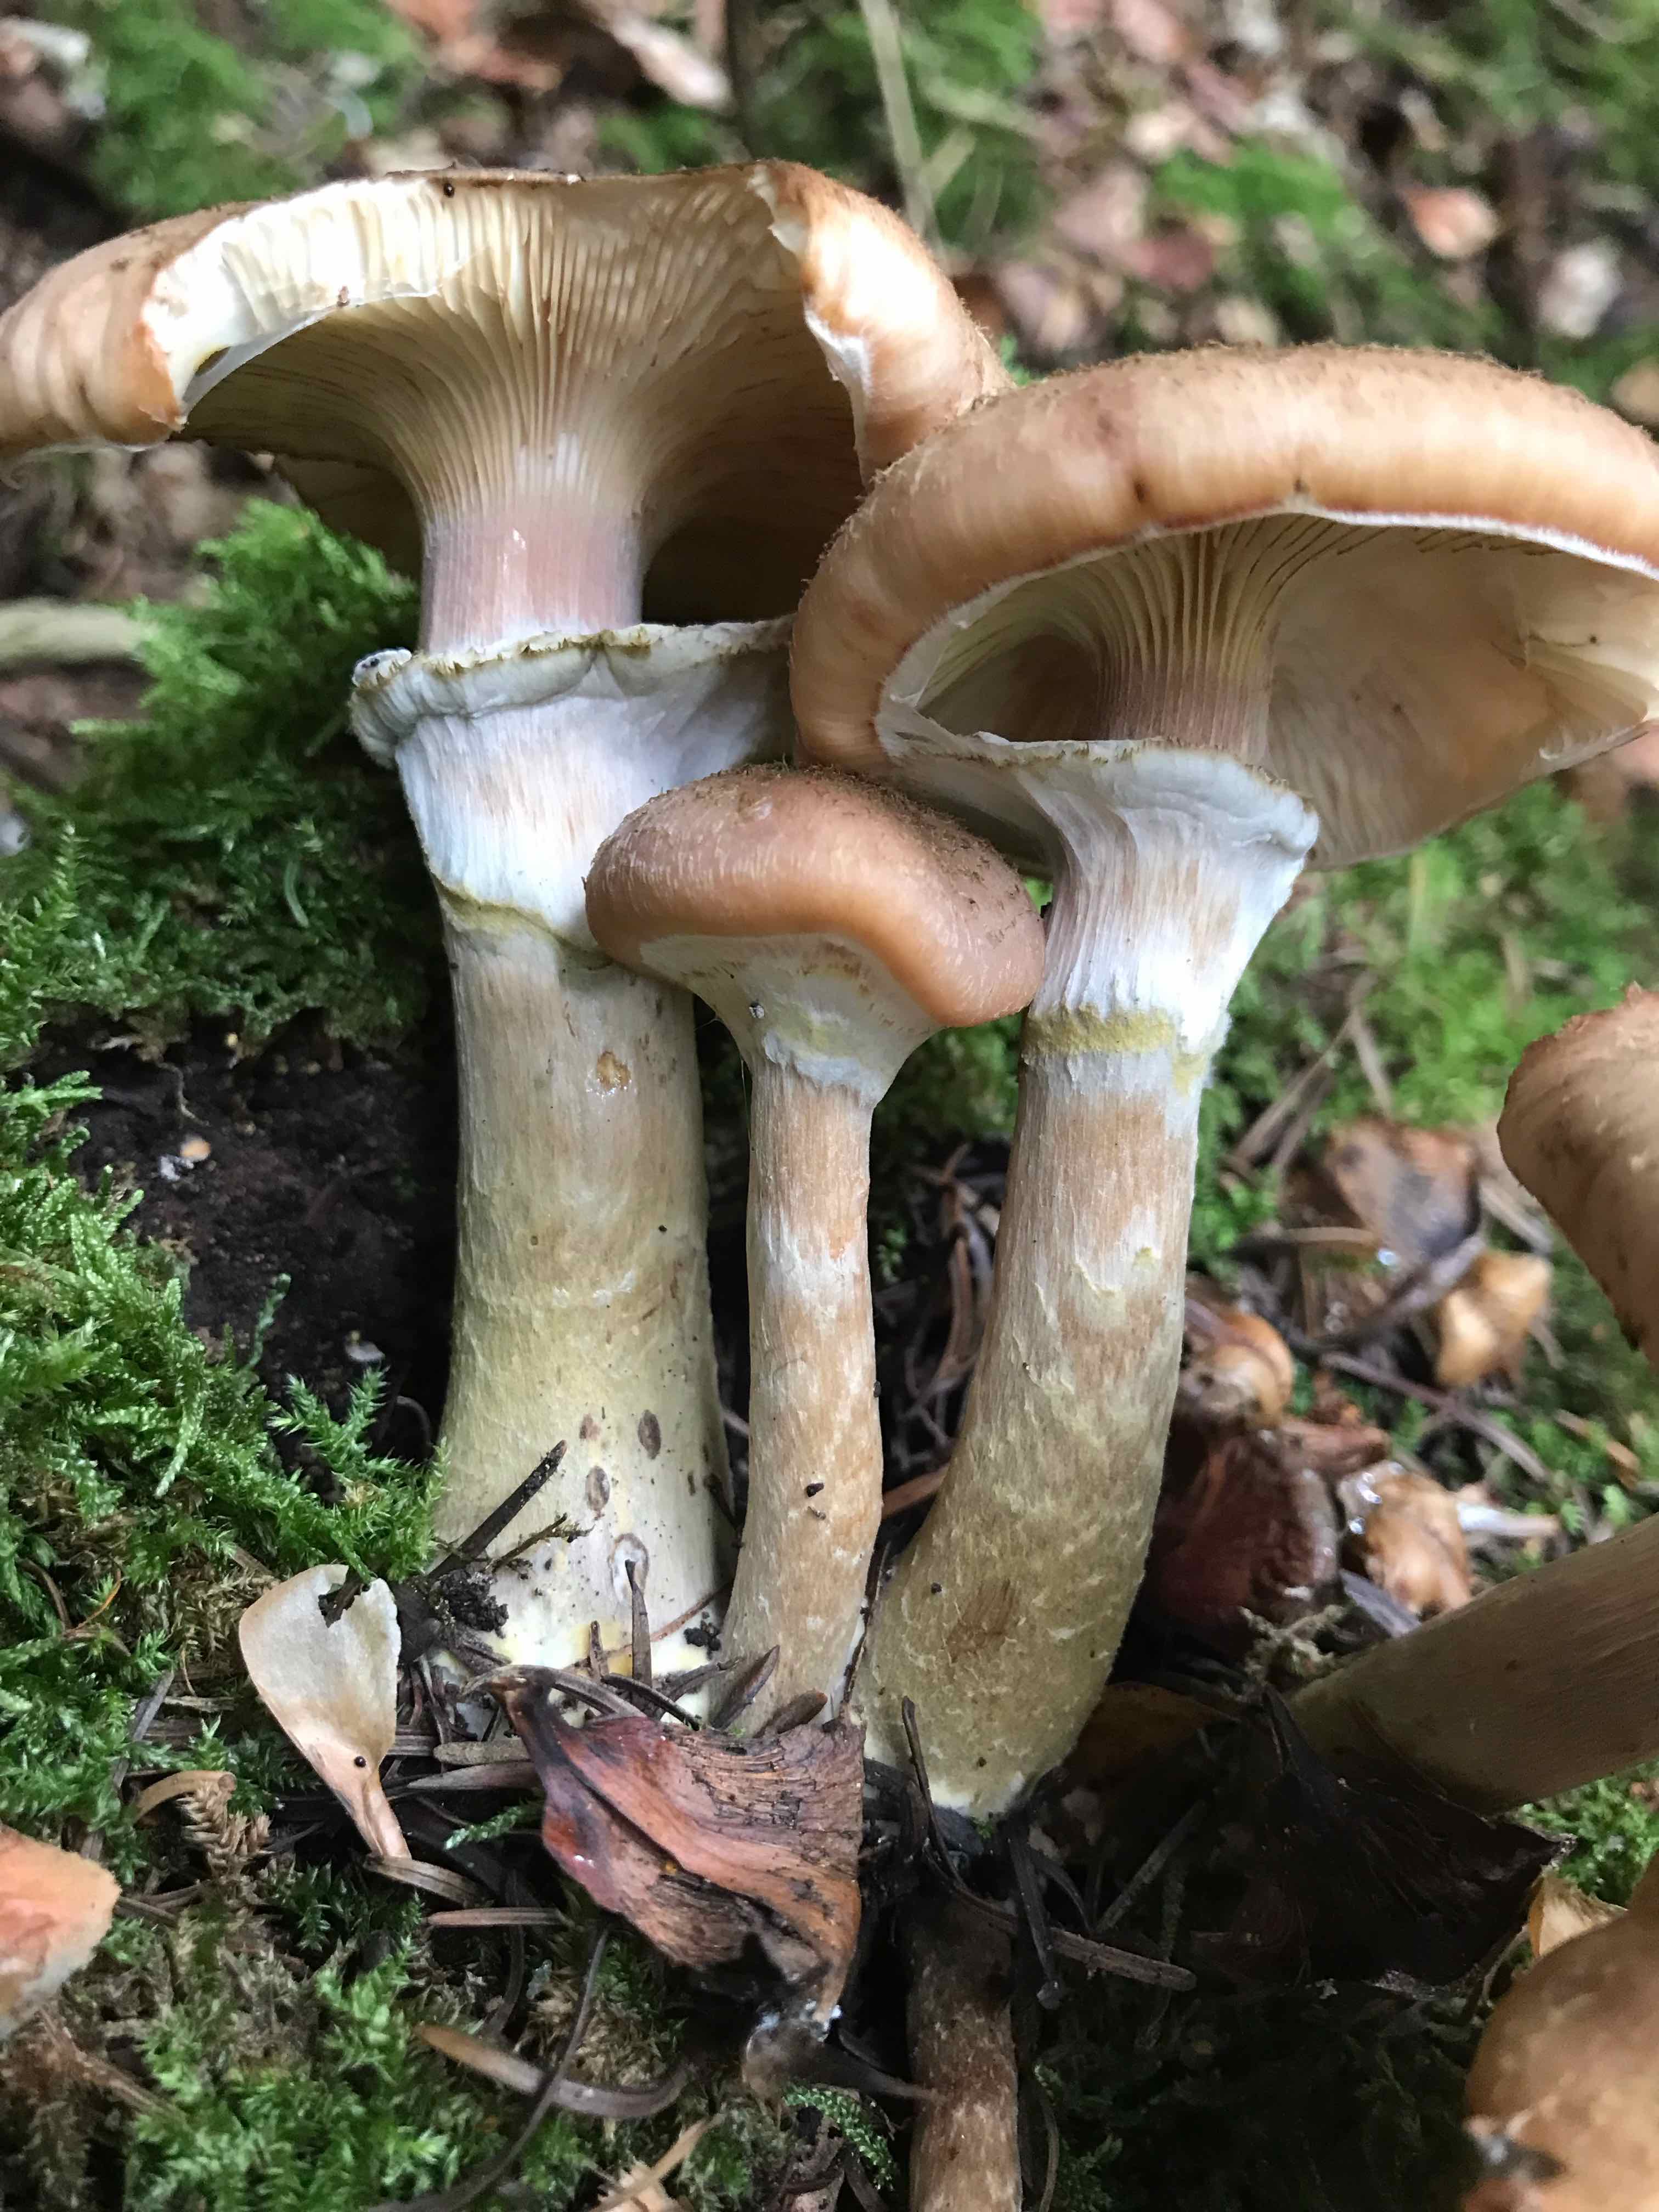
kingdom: Fungi
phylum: Basidiomycota
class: Agaricomycetes
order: Agaricales
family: Physalacriaceae
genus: Armillaria
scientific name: Armillaria lutea
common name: køllestokket honningsvamp
